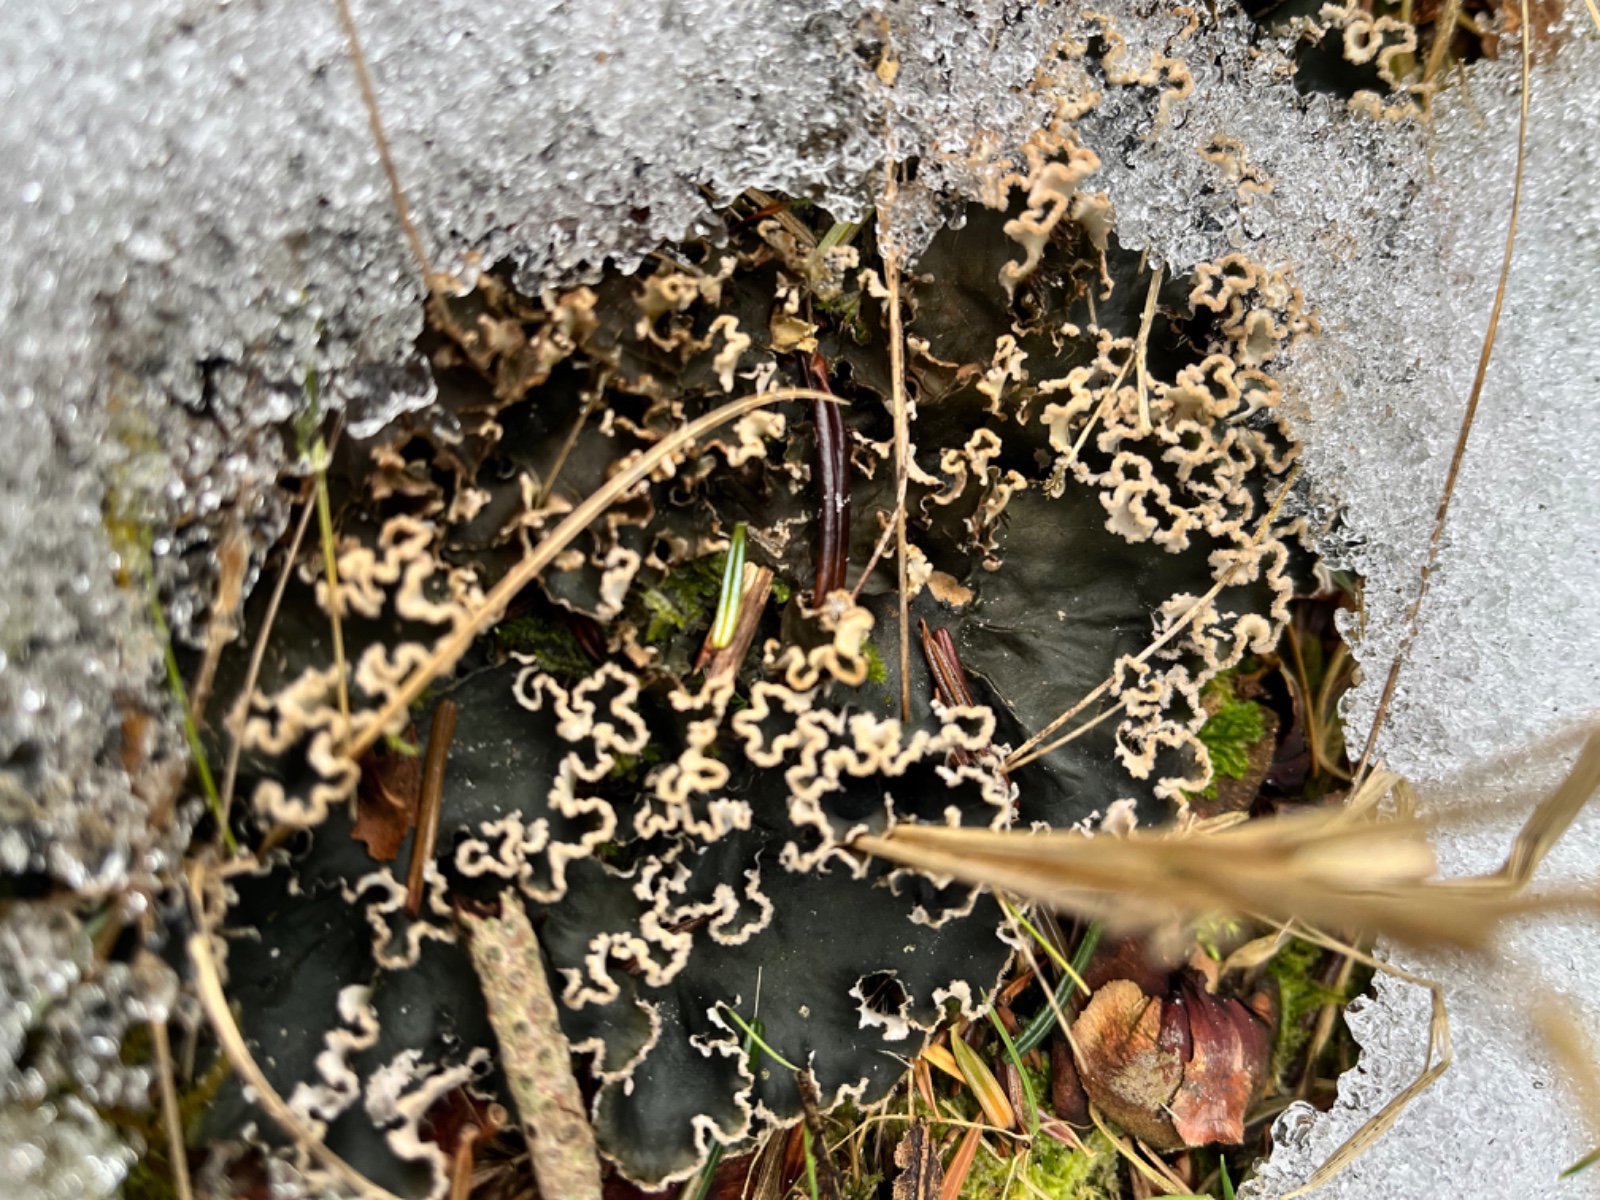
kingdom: Fungi
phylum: Ascomycota
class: Lecanoromycetes
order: Peltigerales
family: Peltigeraceae
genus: Peltigera
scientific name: Peltigera hymenina
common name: hinde-skjoldlav
